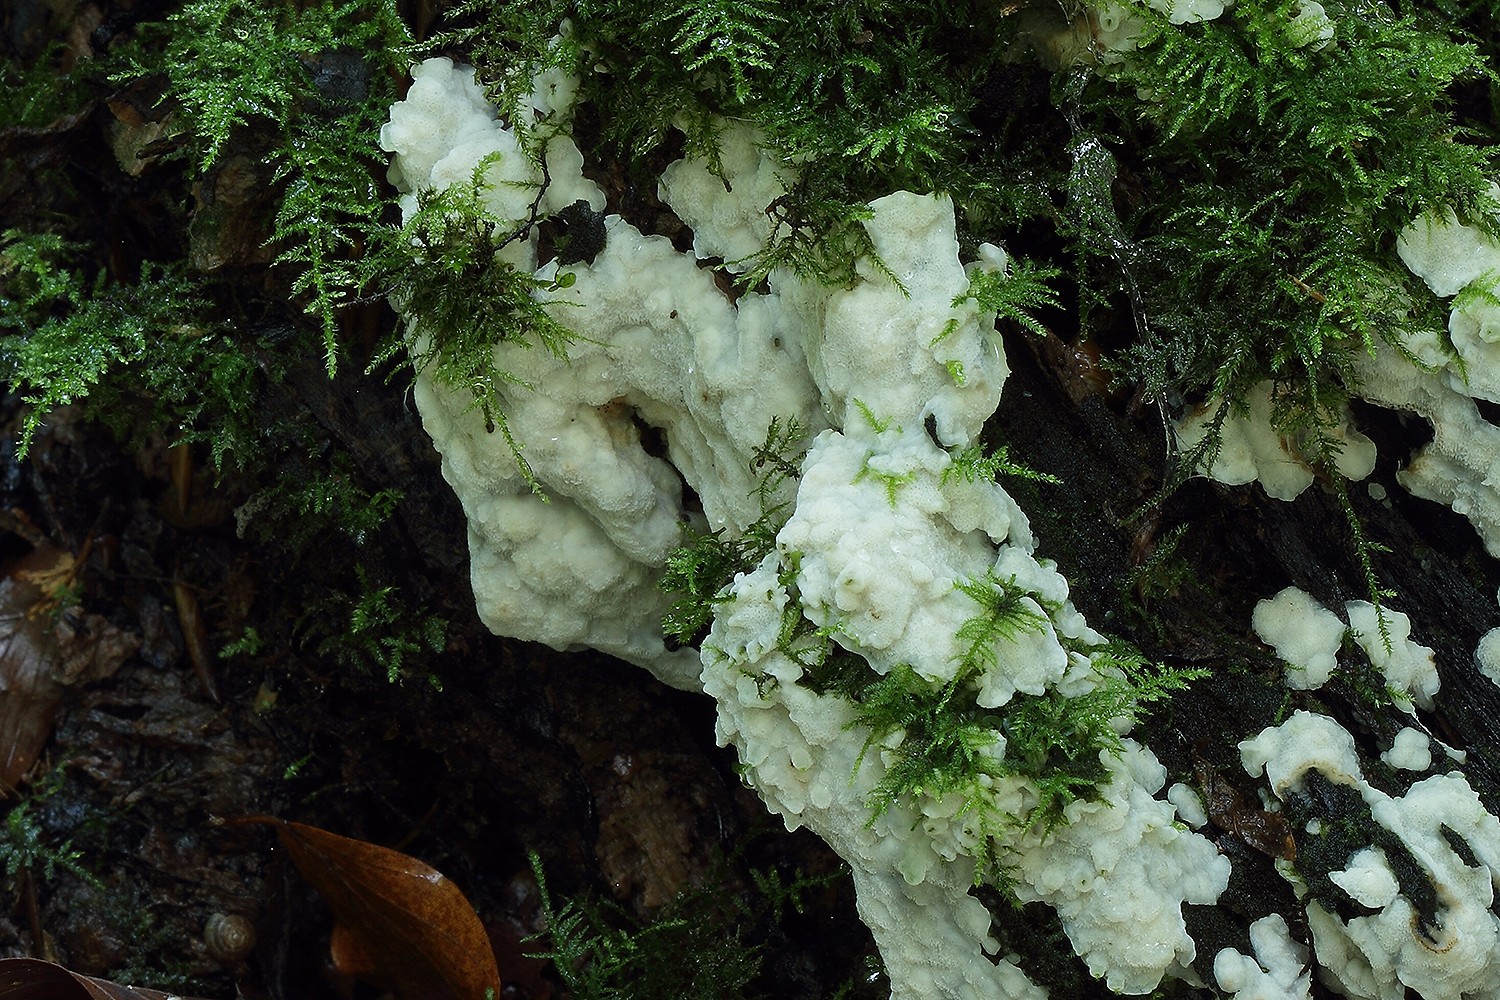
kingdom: Fungi
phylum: Basidiomycota
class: Agaricomycetes
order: Polyporales
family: Meruliaceae
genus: Physisporinus
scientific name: Physisporinus vitreus
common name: mastesvamp
